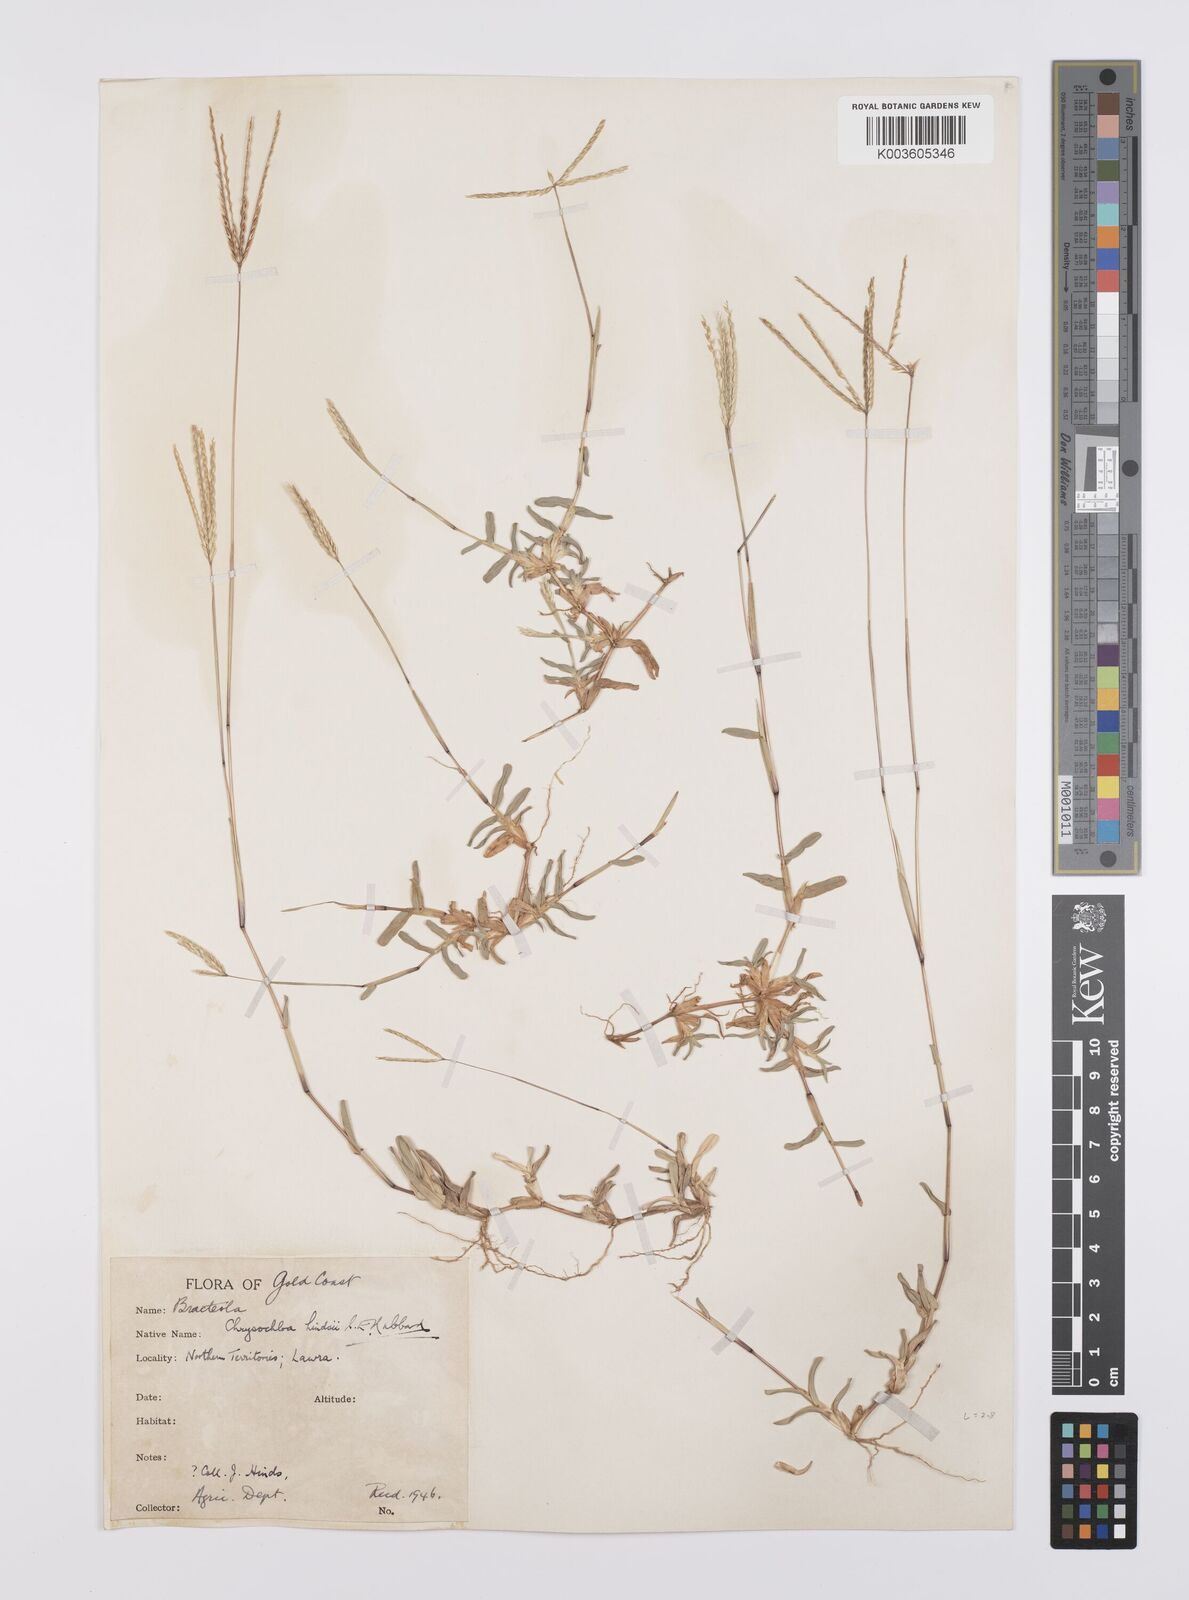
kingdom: Plantae
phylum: Tracheophyta
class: Liliopsida
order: Poales
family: Poaceae
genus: Chrysochloa
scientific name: Chrysochloa hindsii
